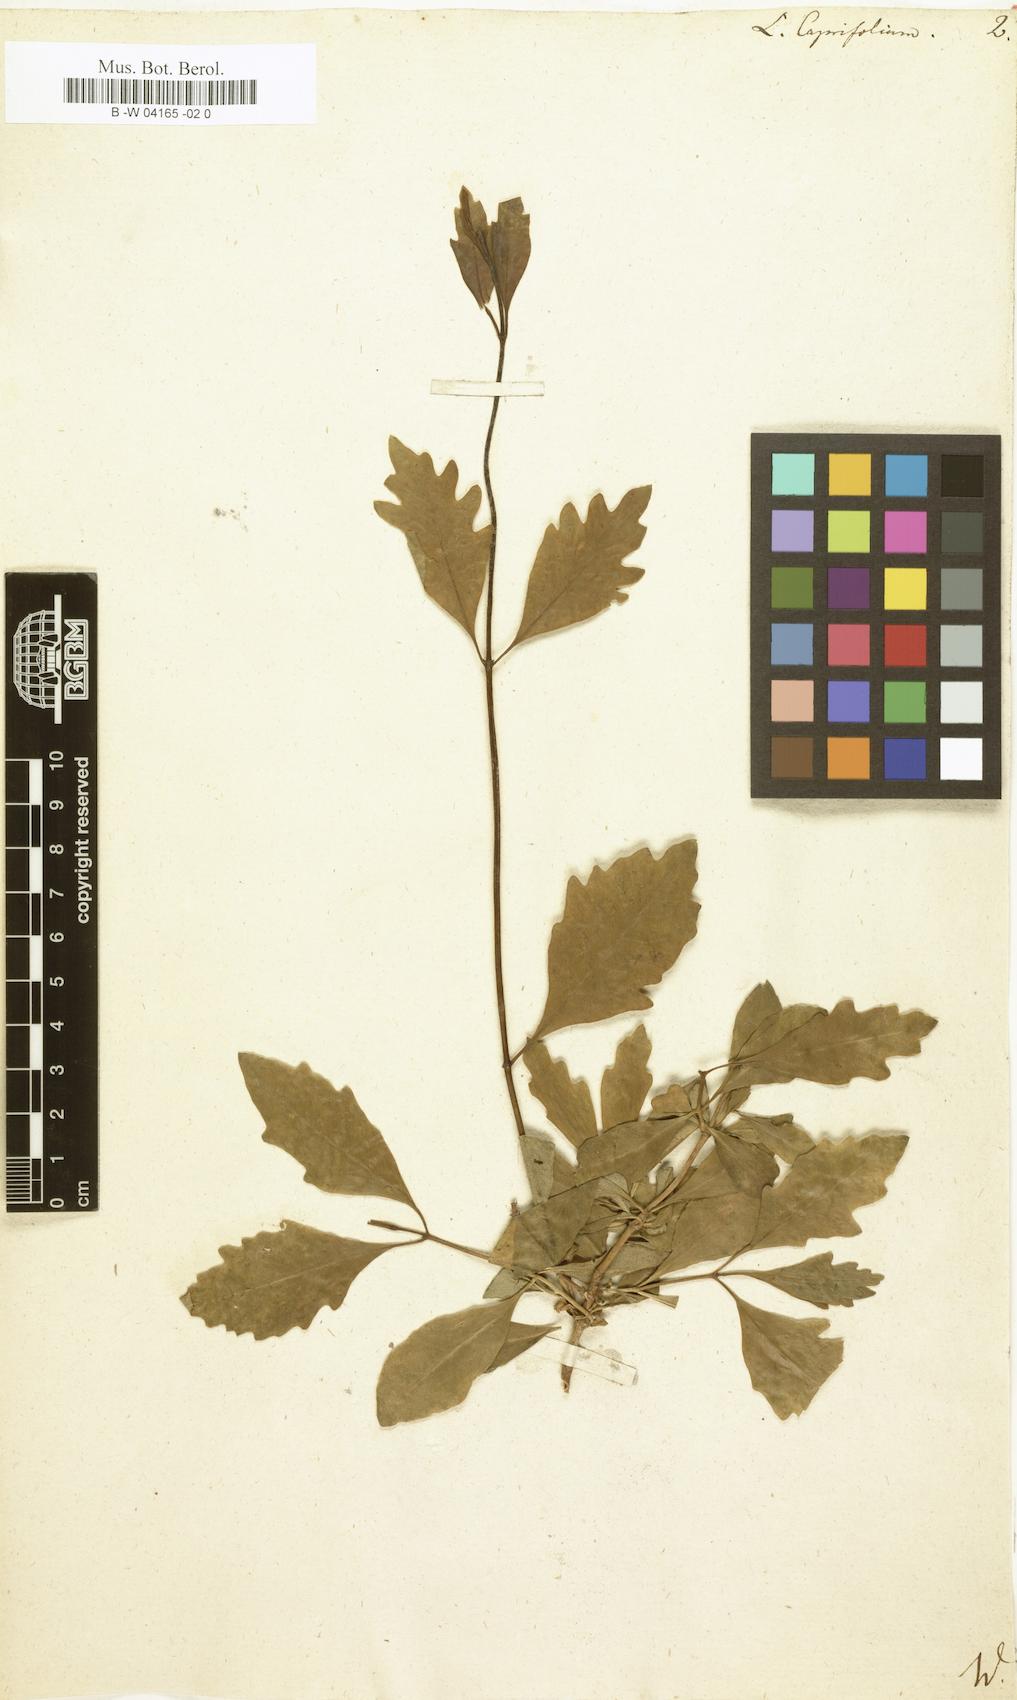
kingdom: Plantae
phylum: Tracheophyta
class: Magnoliopsida
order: Dipsacales
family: Caprifoliaceae
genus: Lonicera
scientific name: Lonicera caprifolium
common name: Perfoliate honeysuckle
